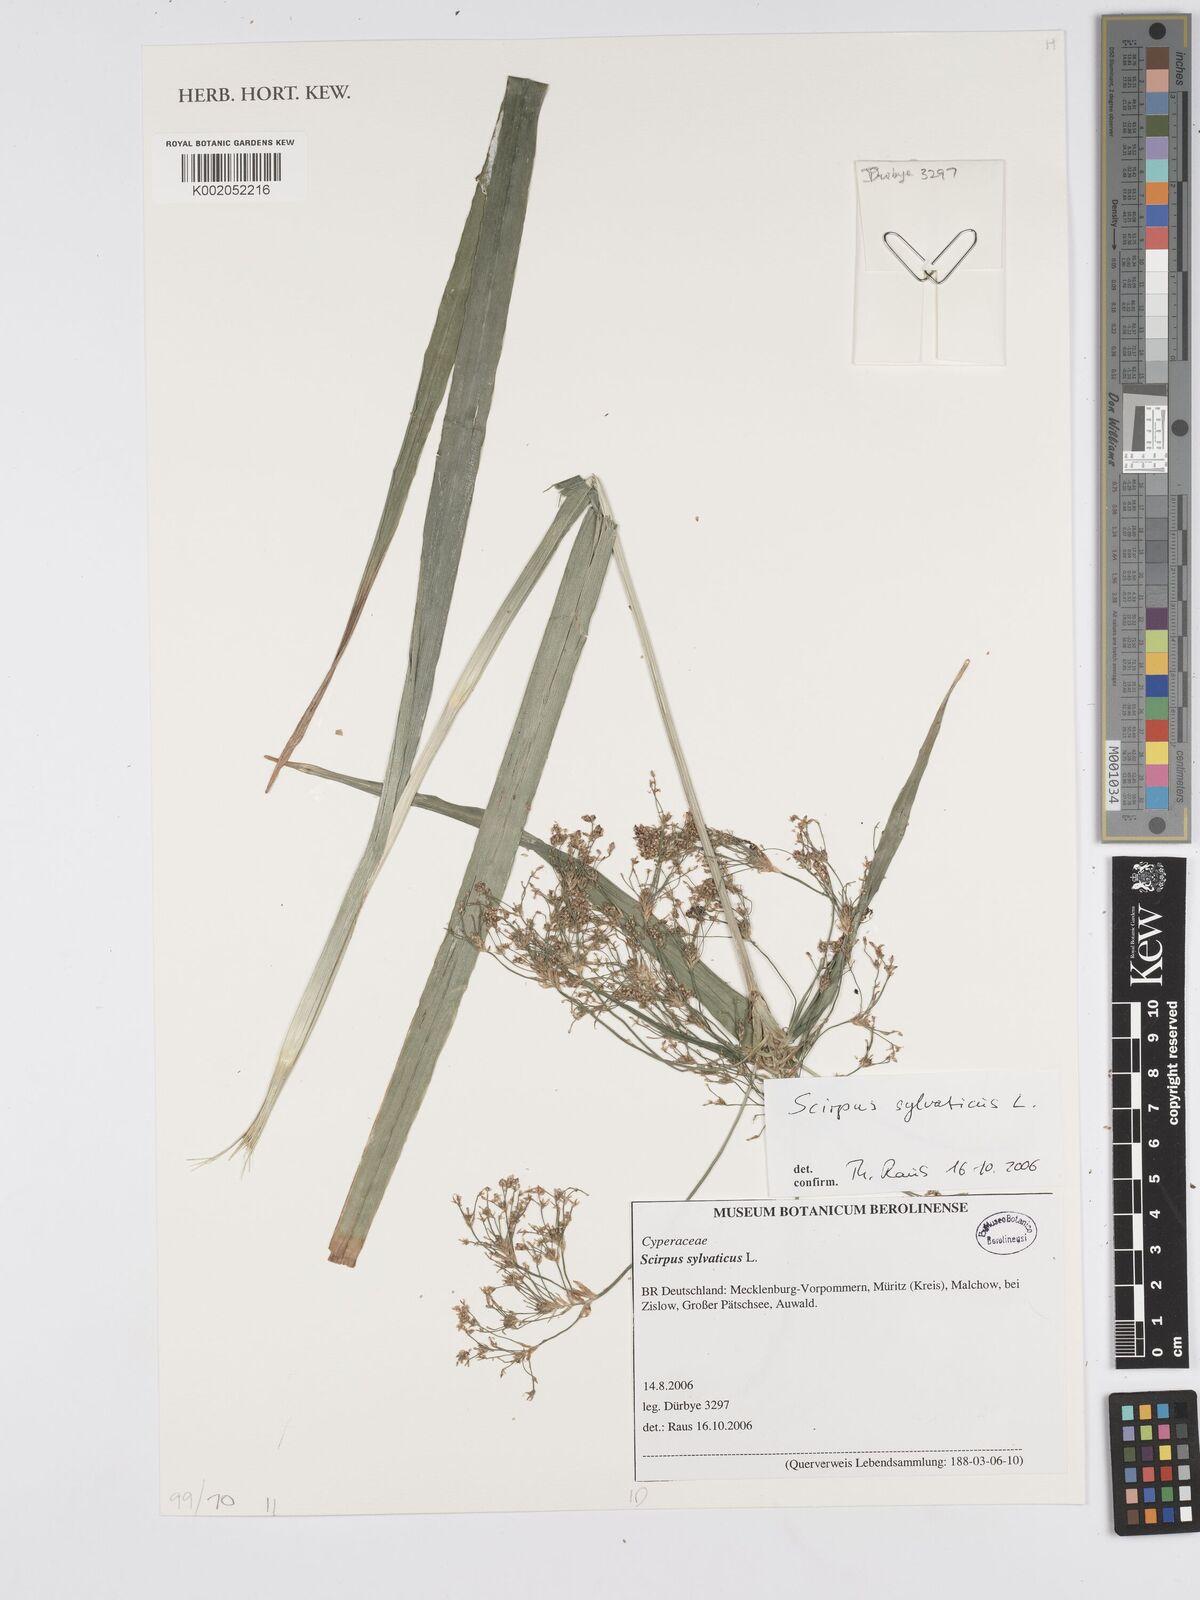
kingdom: Plantae
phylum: Tracheophyta
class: Liliopsida
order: Poales
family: Cyperaceae
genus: Scirpus
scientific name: Scirpus sylvaticus
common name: Wood club-rush
